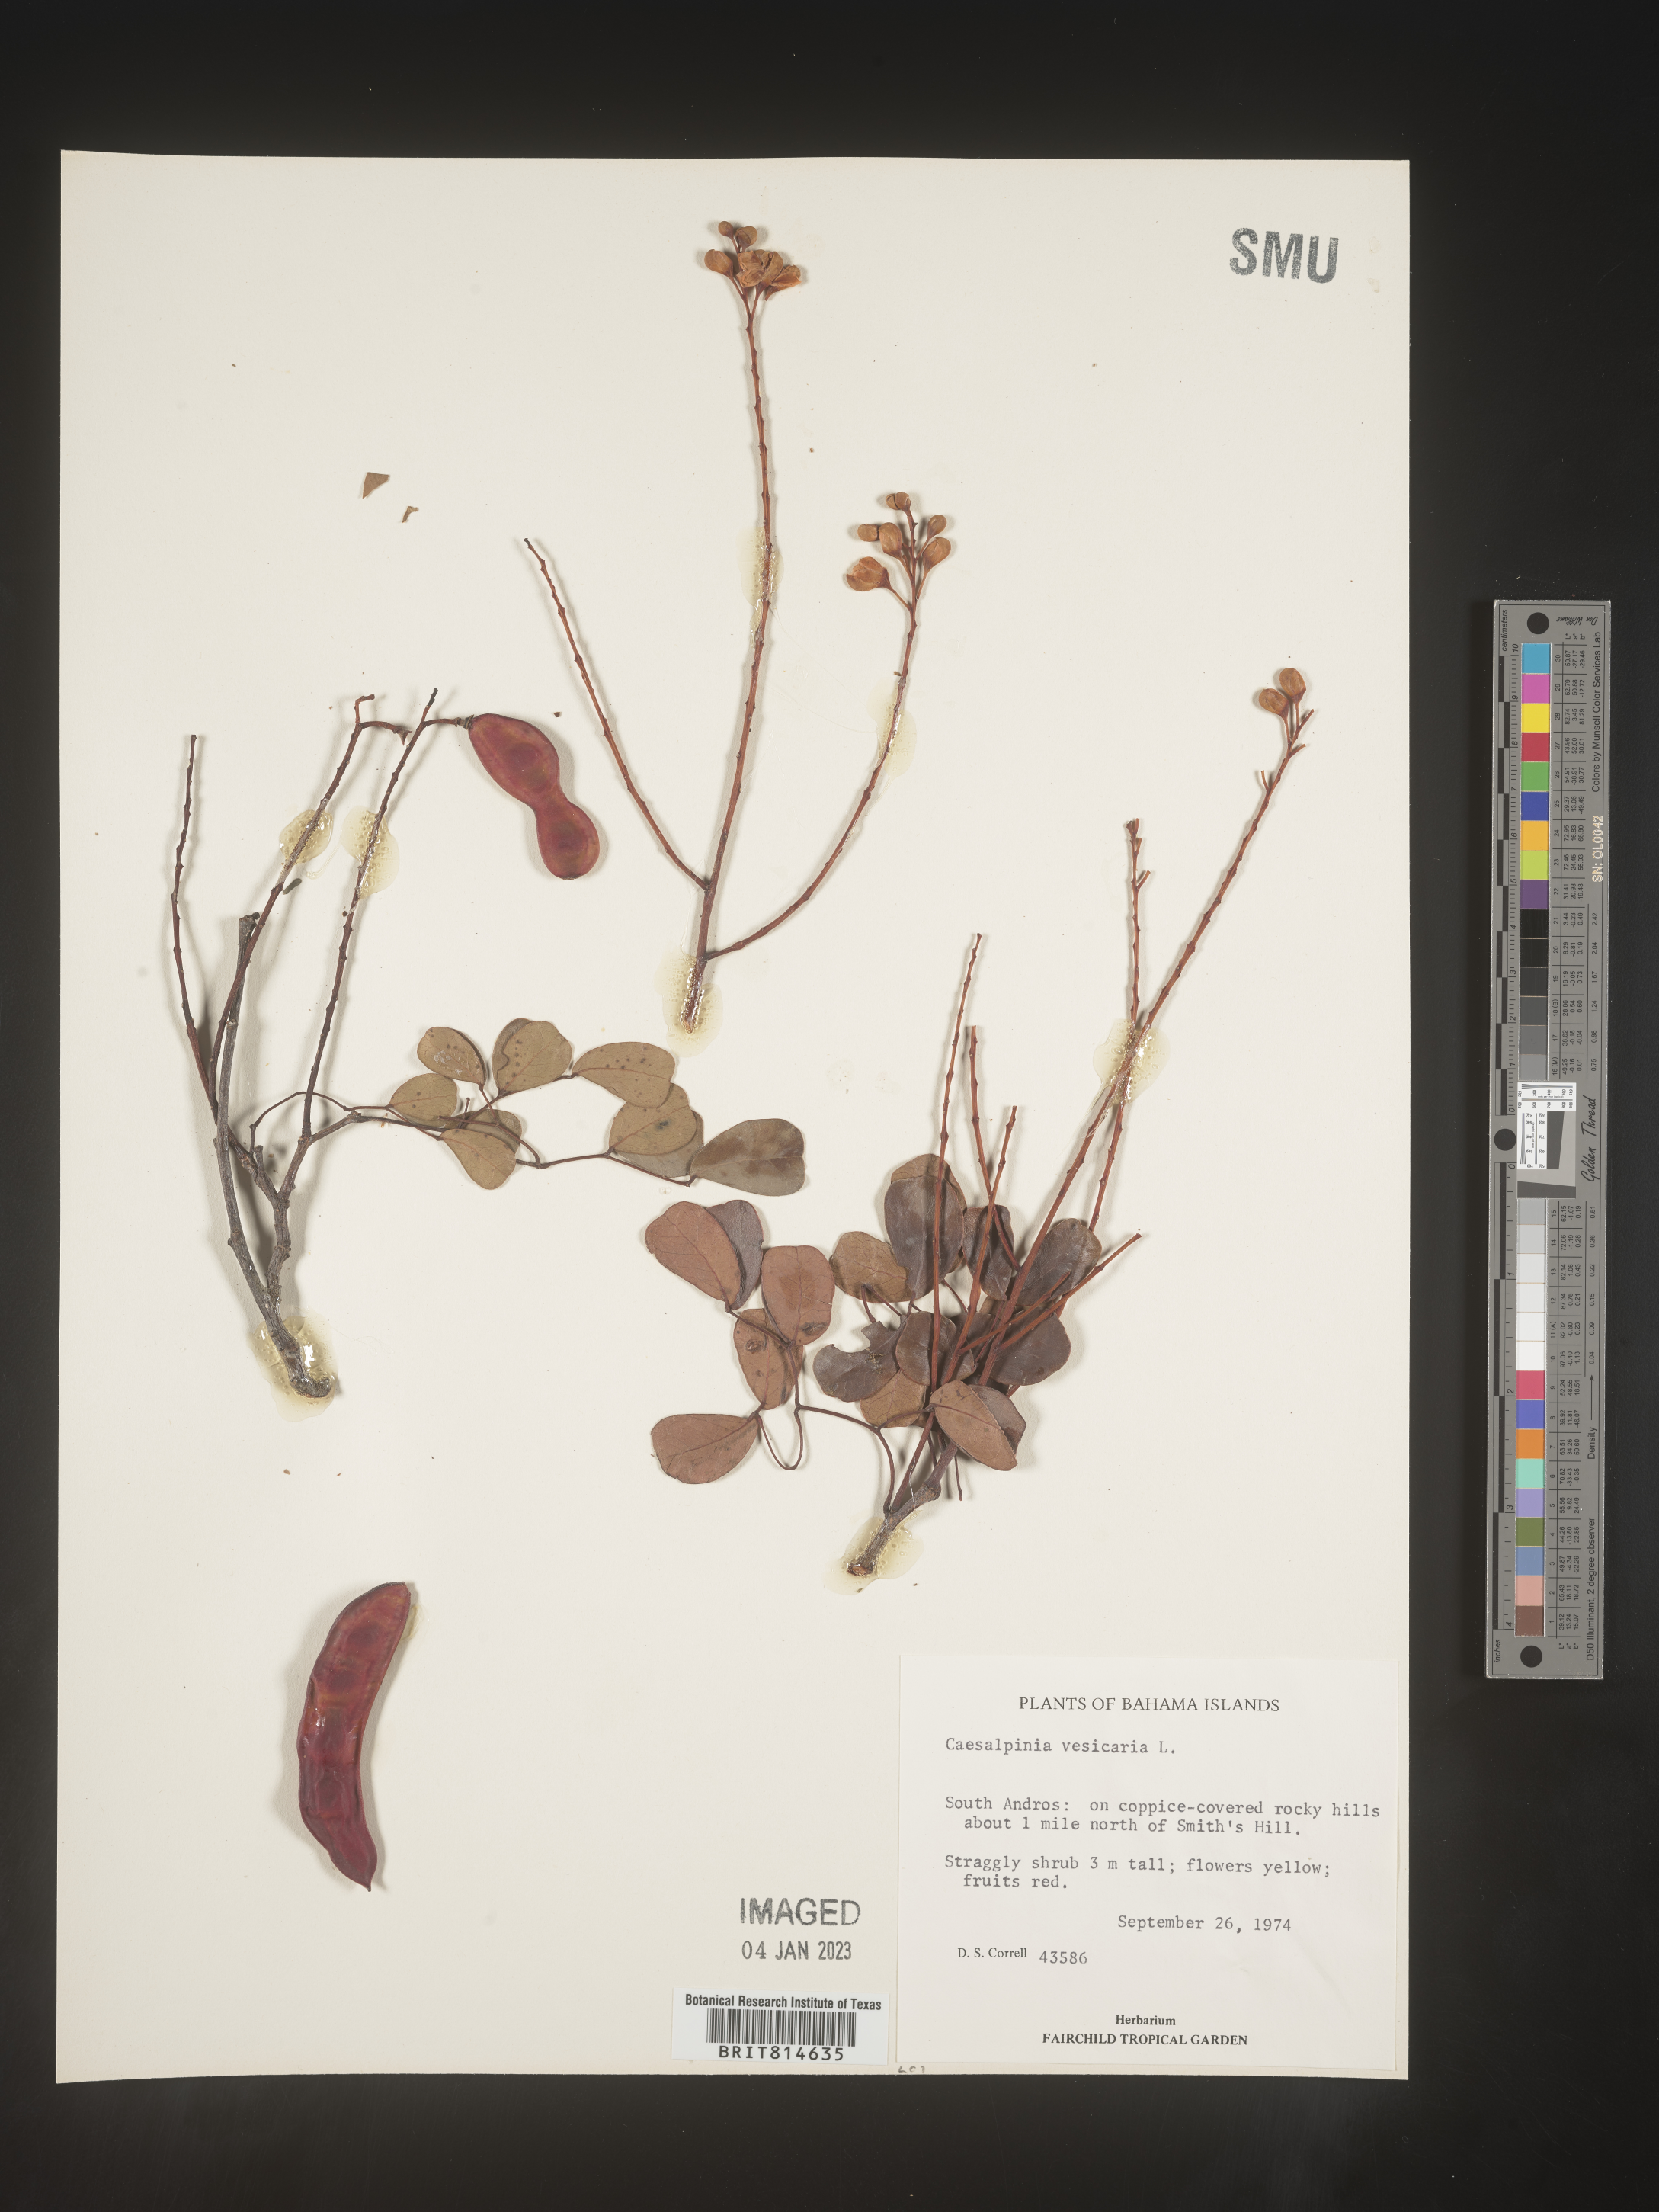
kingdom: Plantae
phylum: Tracheophyta
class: Magnoliopsida
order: Fabales
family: Fabaceae
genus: Caesalpinia
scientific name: Caesalpinia
